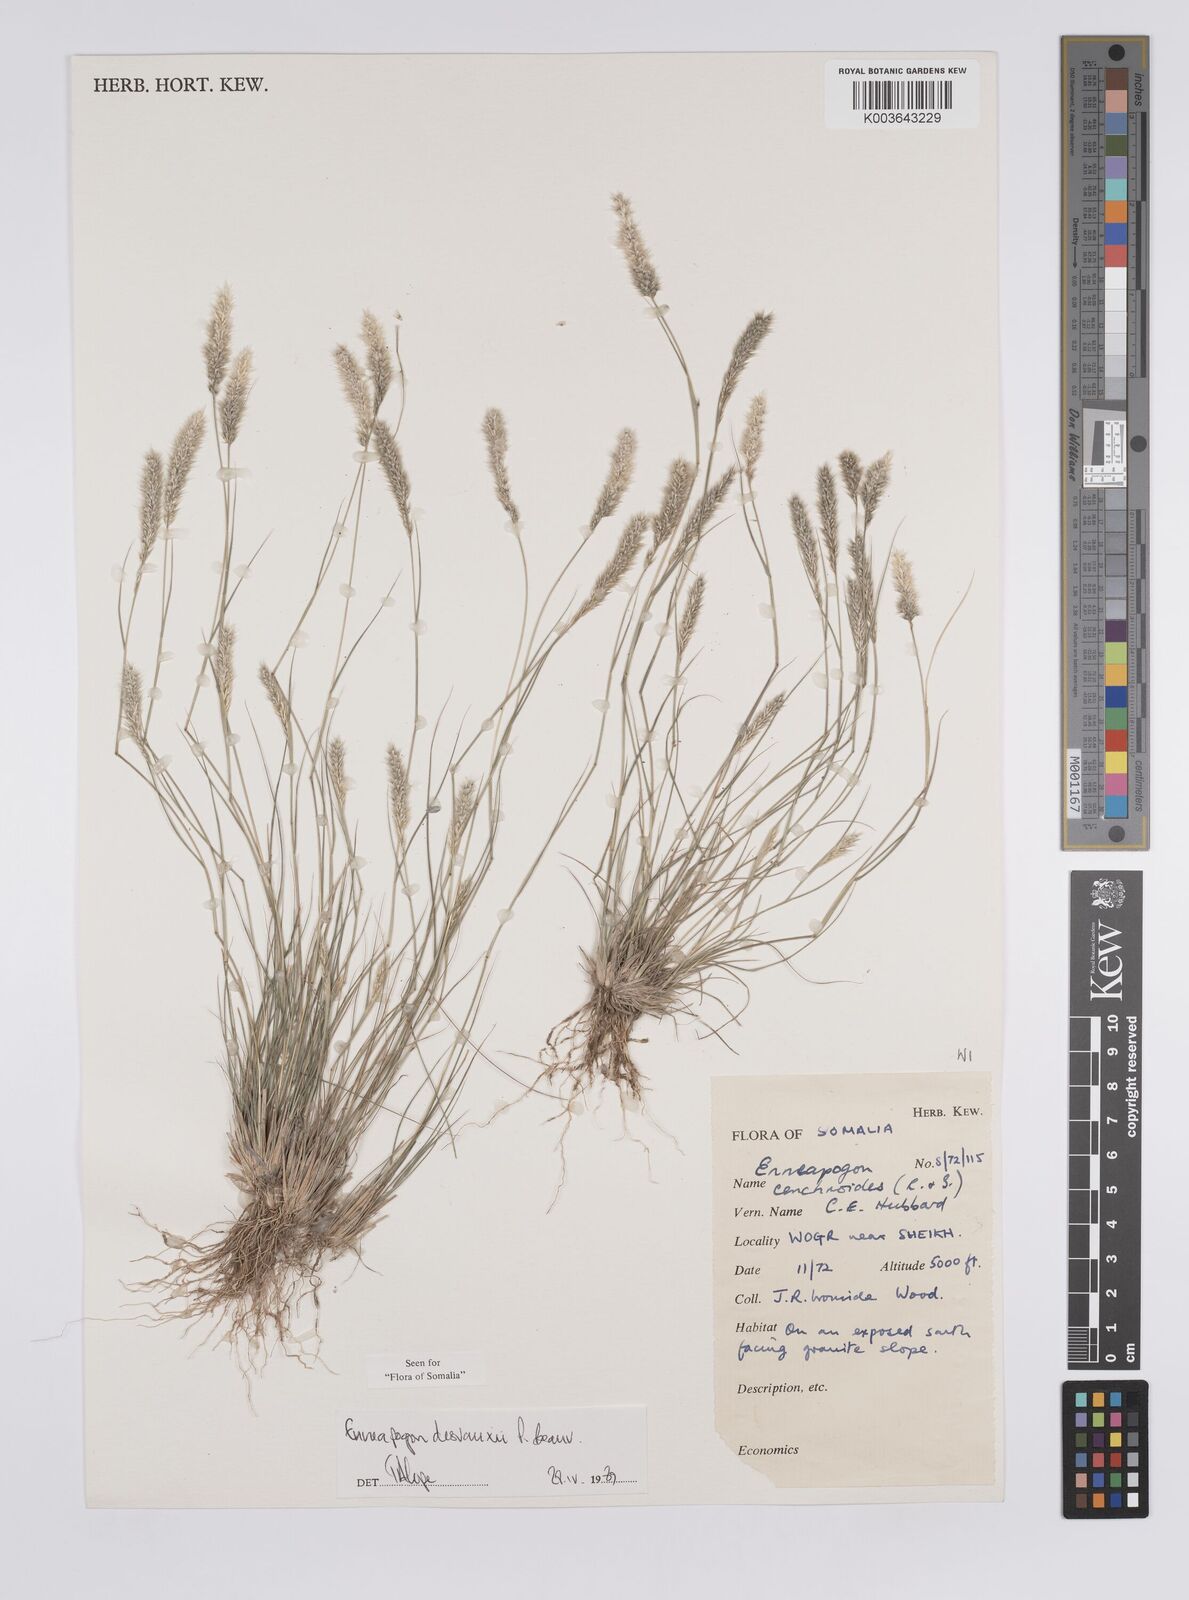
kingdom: Plantae
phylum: Tracheophyta
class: Liliopsida
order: Poales
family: Poaceae
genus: Enneapogon
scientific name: Enneapogon desvauxii
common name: Feather pappus grass
